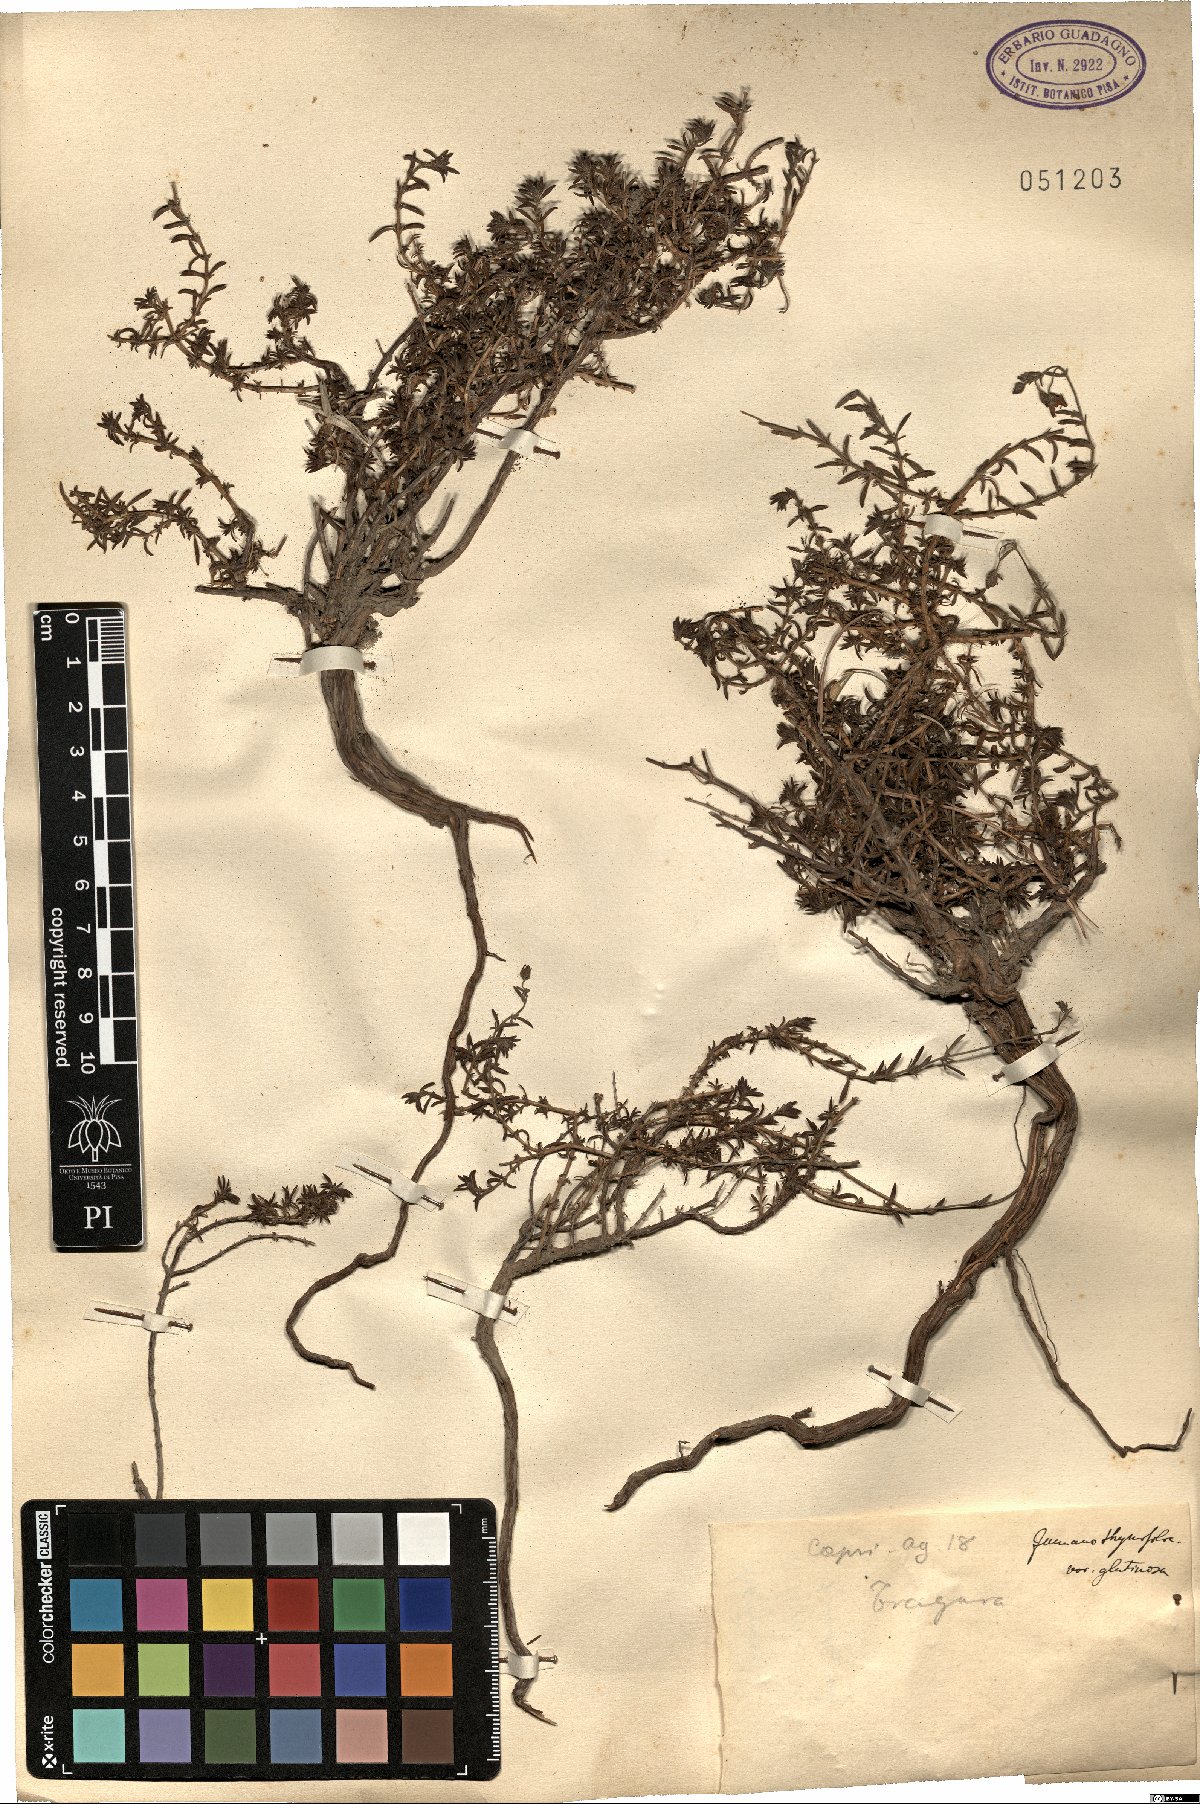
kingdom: Plantae
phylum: Tracheophyta
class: Magnoliopsida
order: Malvales
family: Cistaceae
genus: Fumana
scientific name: Fumana thymifolia
